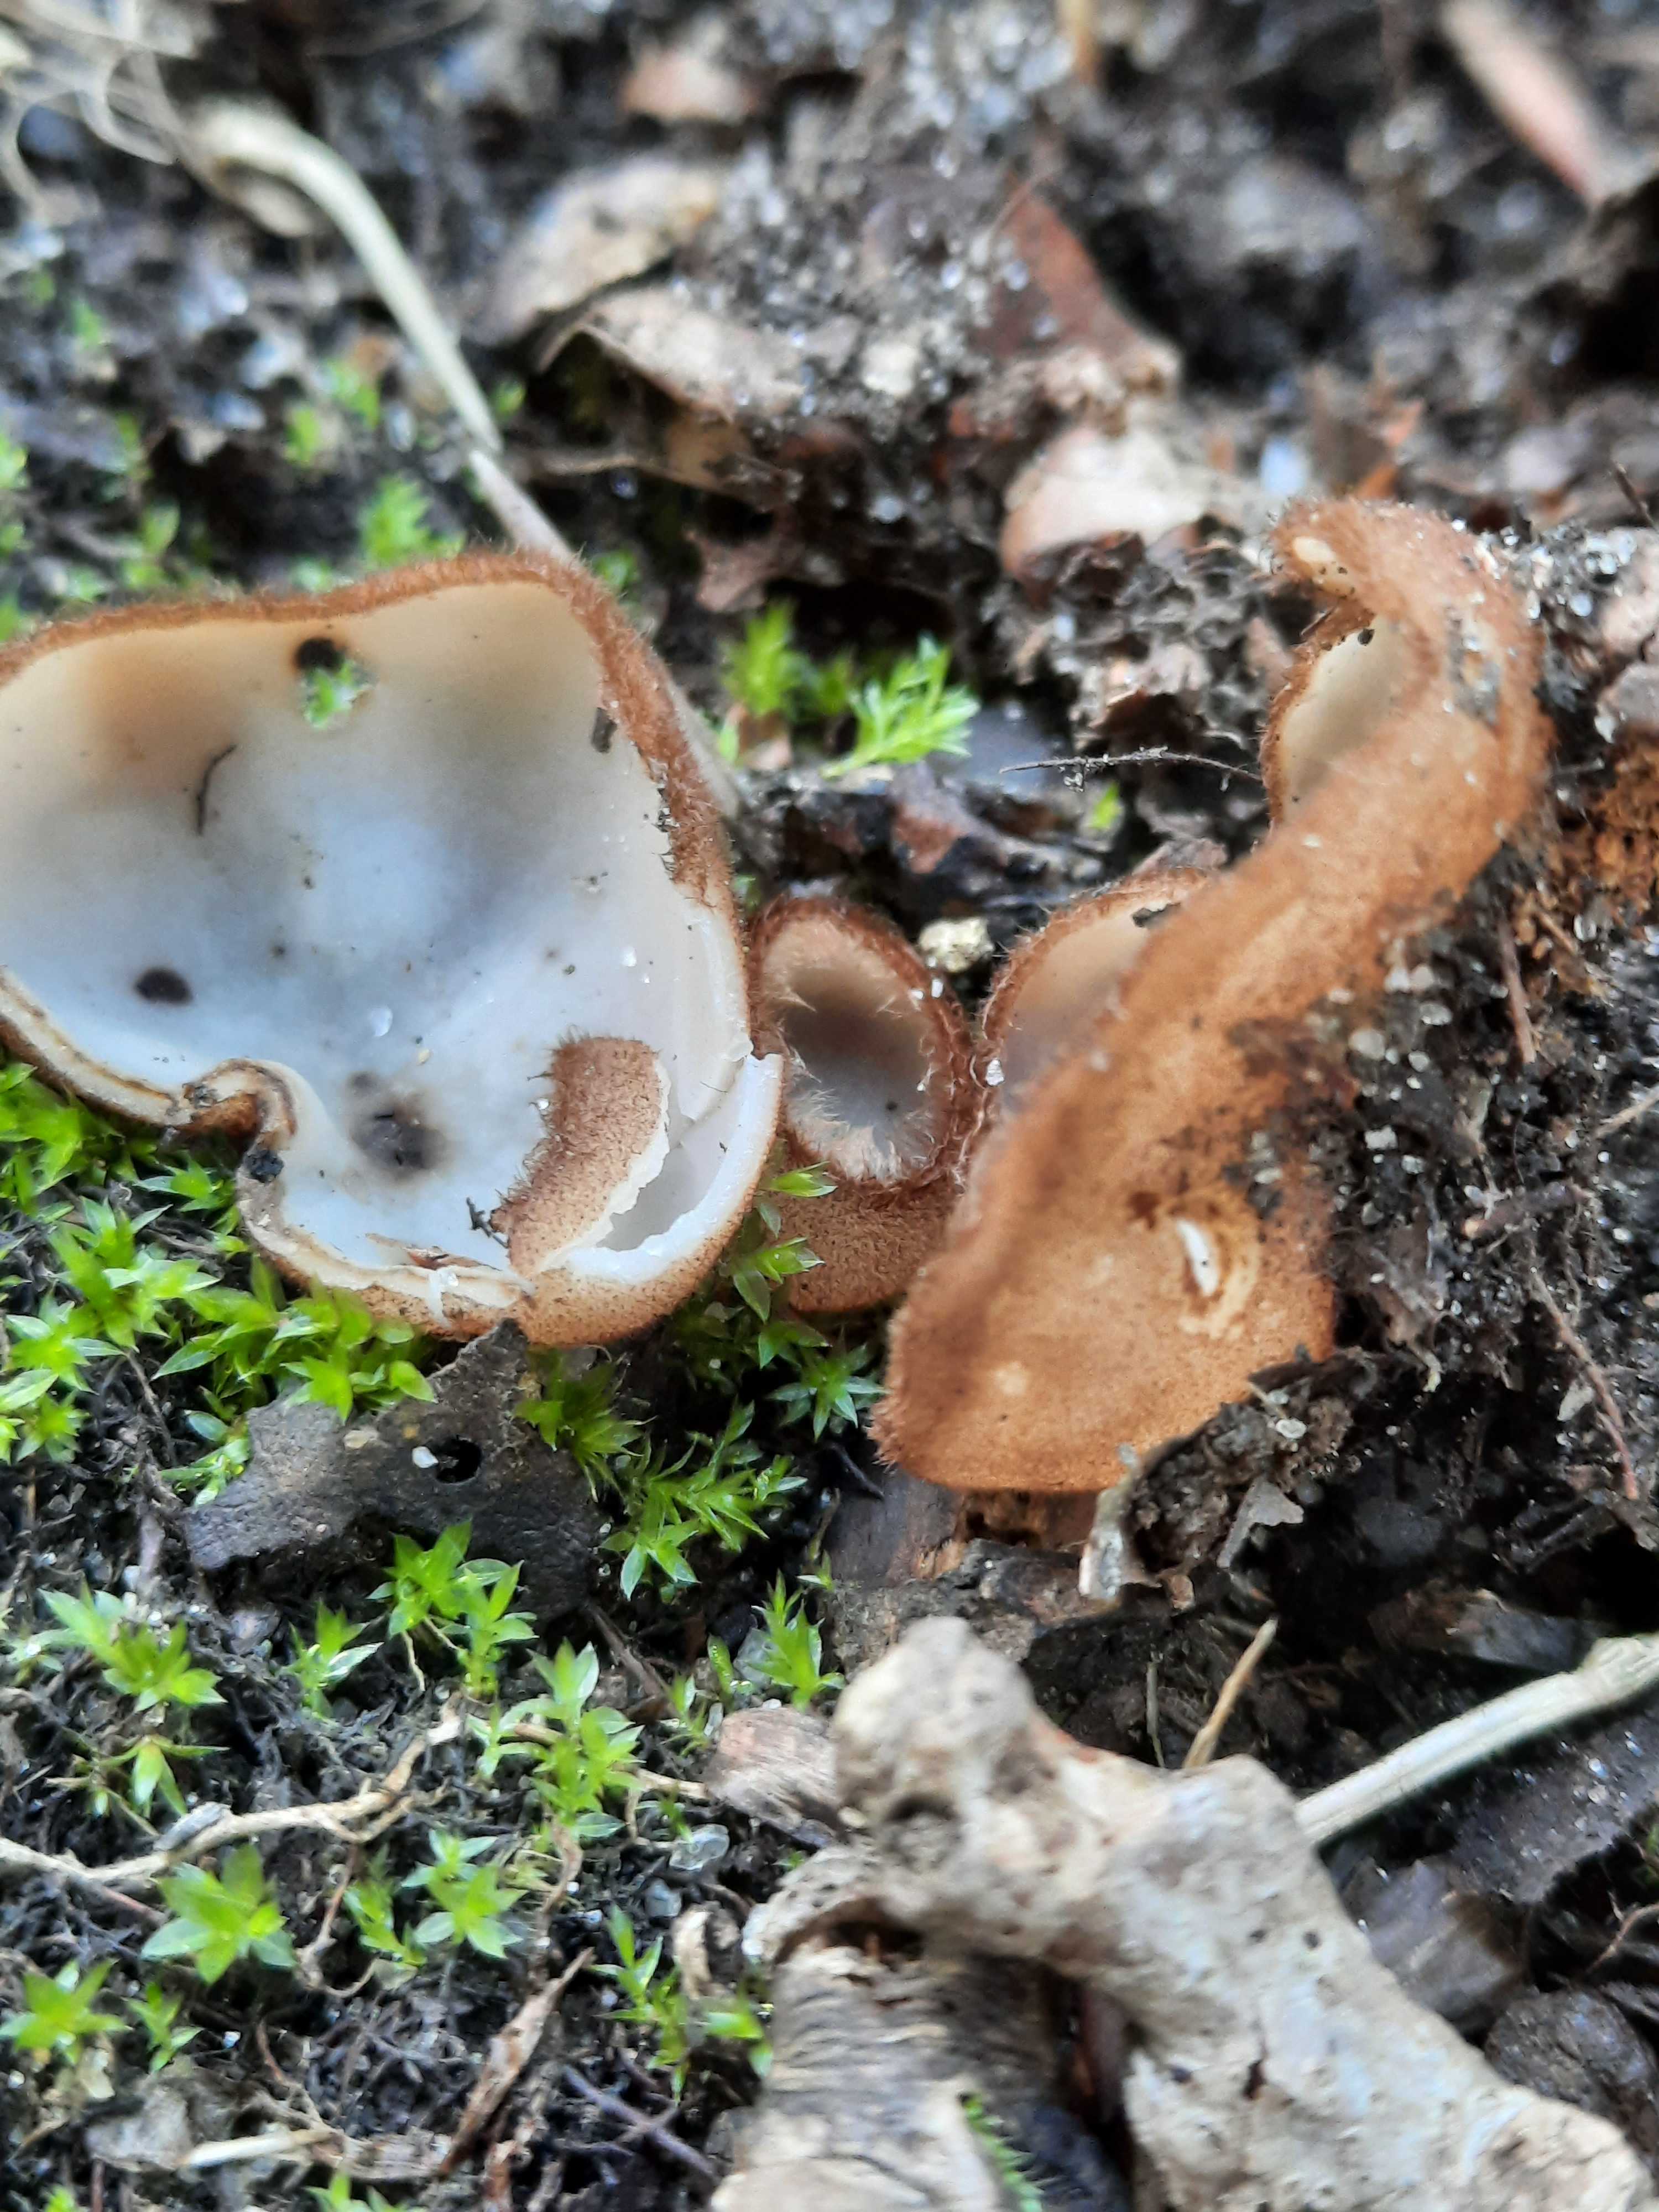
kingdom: Fungi
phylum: Ascomycota
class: Pezizomycetes
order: Pezizales
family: Pyronemataceae
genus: Humaria
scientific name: Humaria hemisphaerica
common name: halvkugleformet børstebæger
